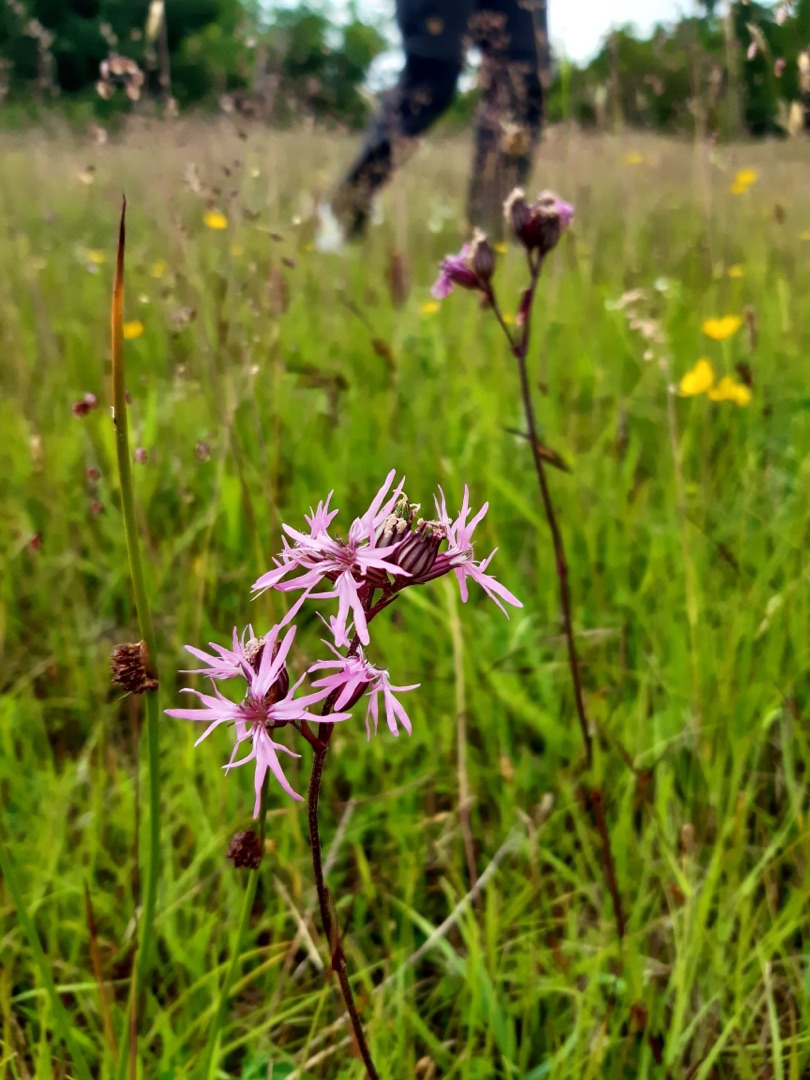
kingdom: Plantae
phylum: Tracheophyta
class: Magnoliopsida
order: Caryophyllales
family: Caryophyllaceae
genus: Silene
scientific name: Silene flos-cuculi
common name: Trævlekrone
